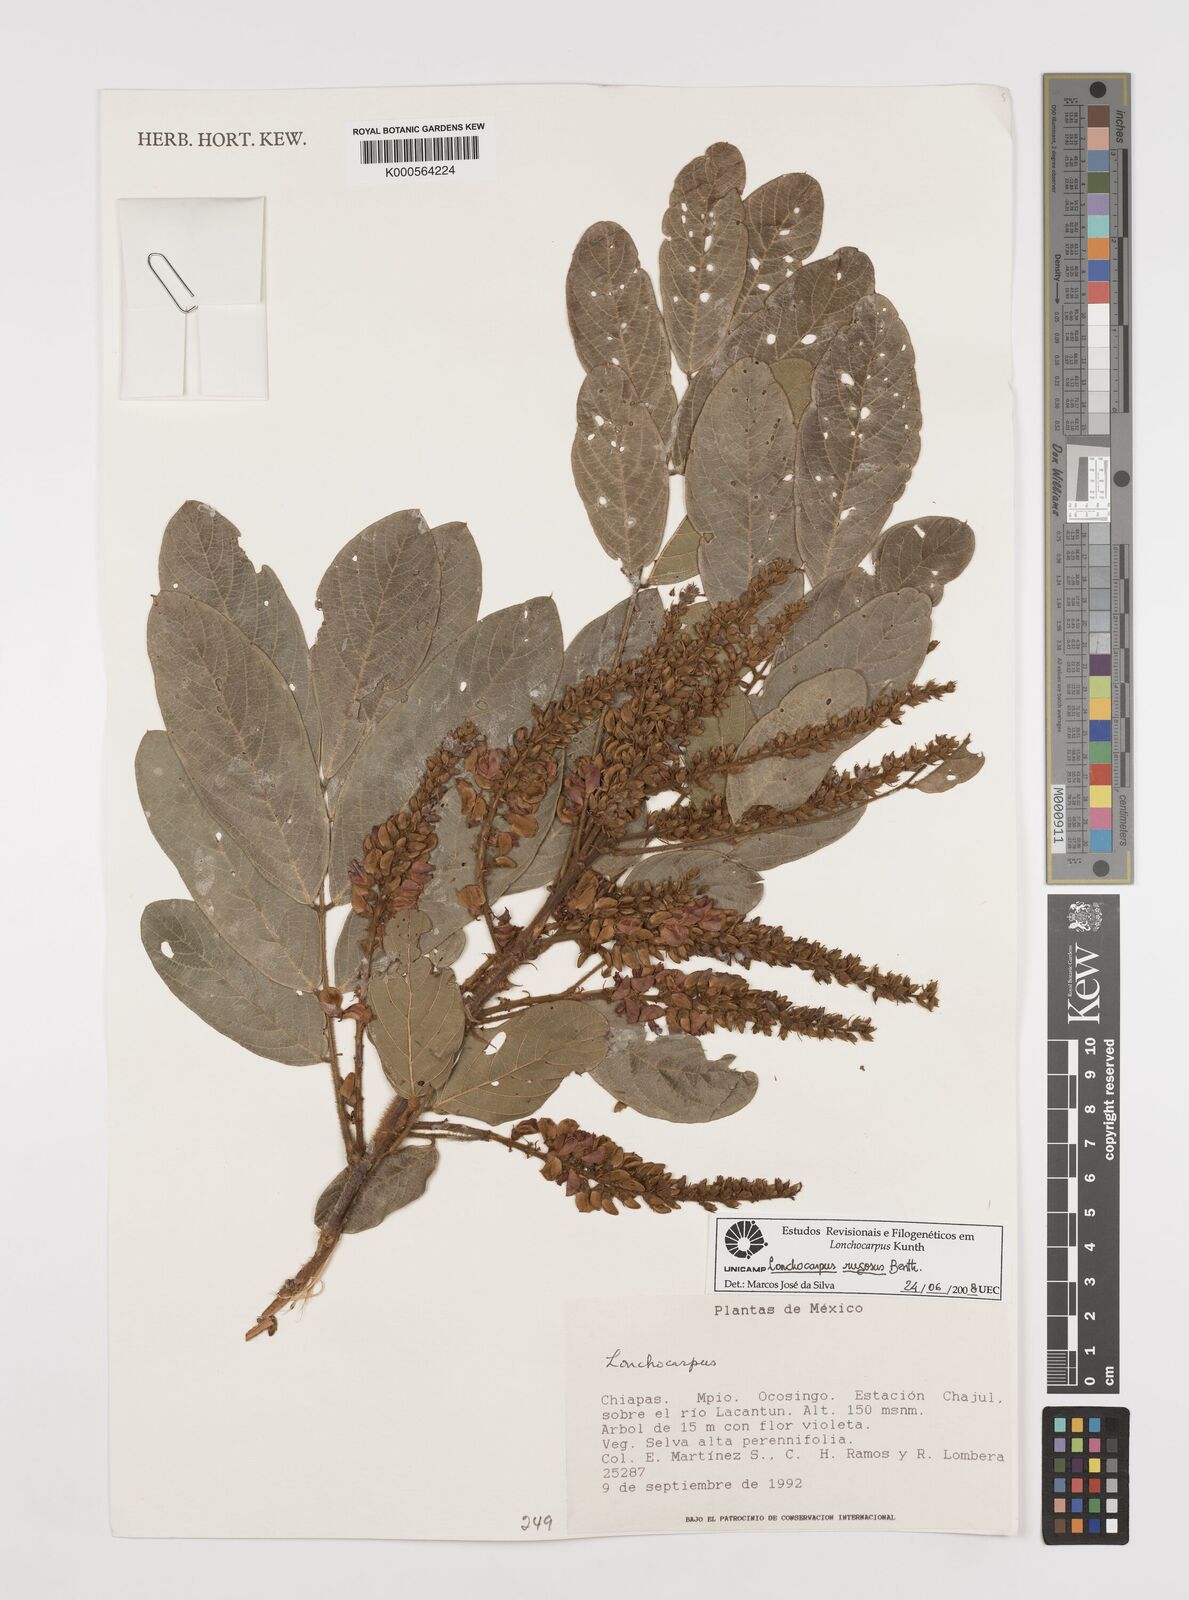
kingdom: Plantae
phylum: Tracheophyta
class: Magnoliopsida
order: Fabales
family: Fabaceae
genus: Lonchocarpus
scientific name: Lonchocarpus rugosus
